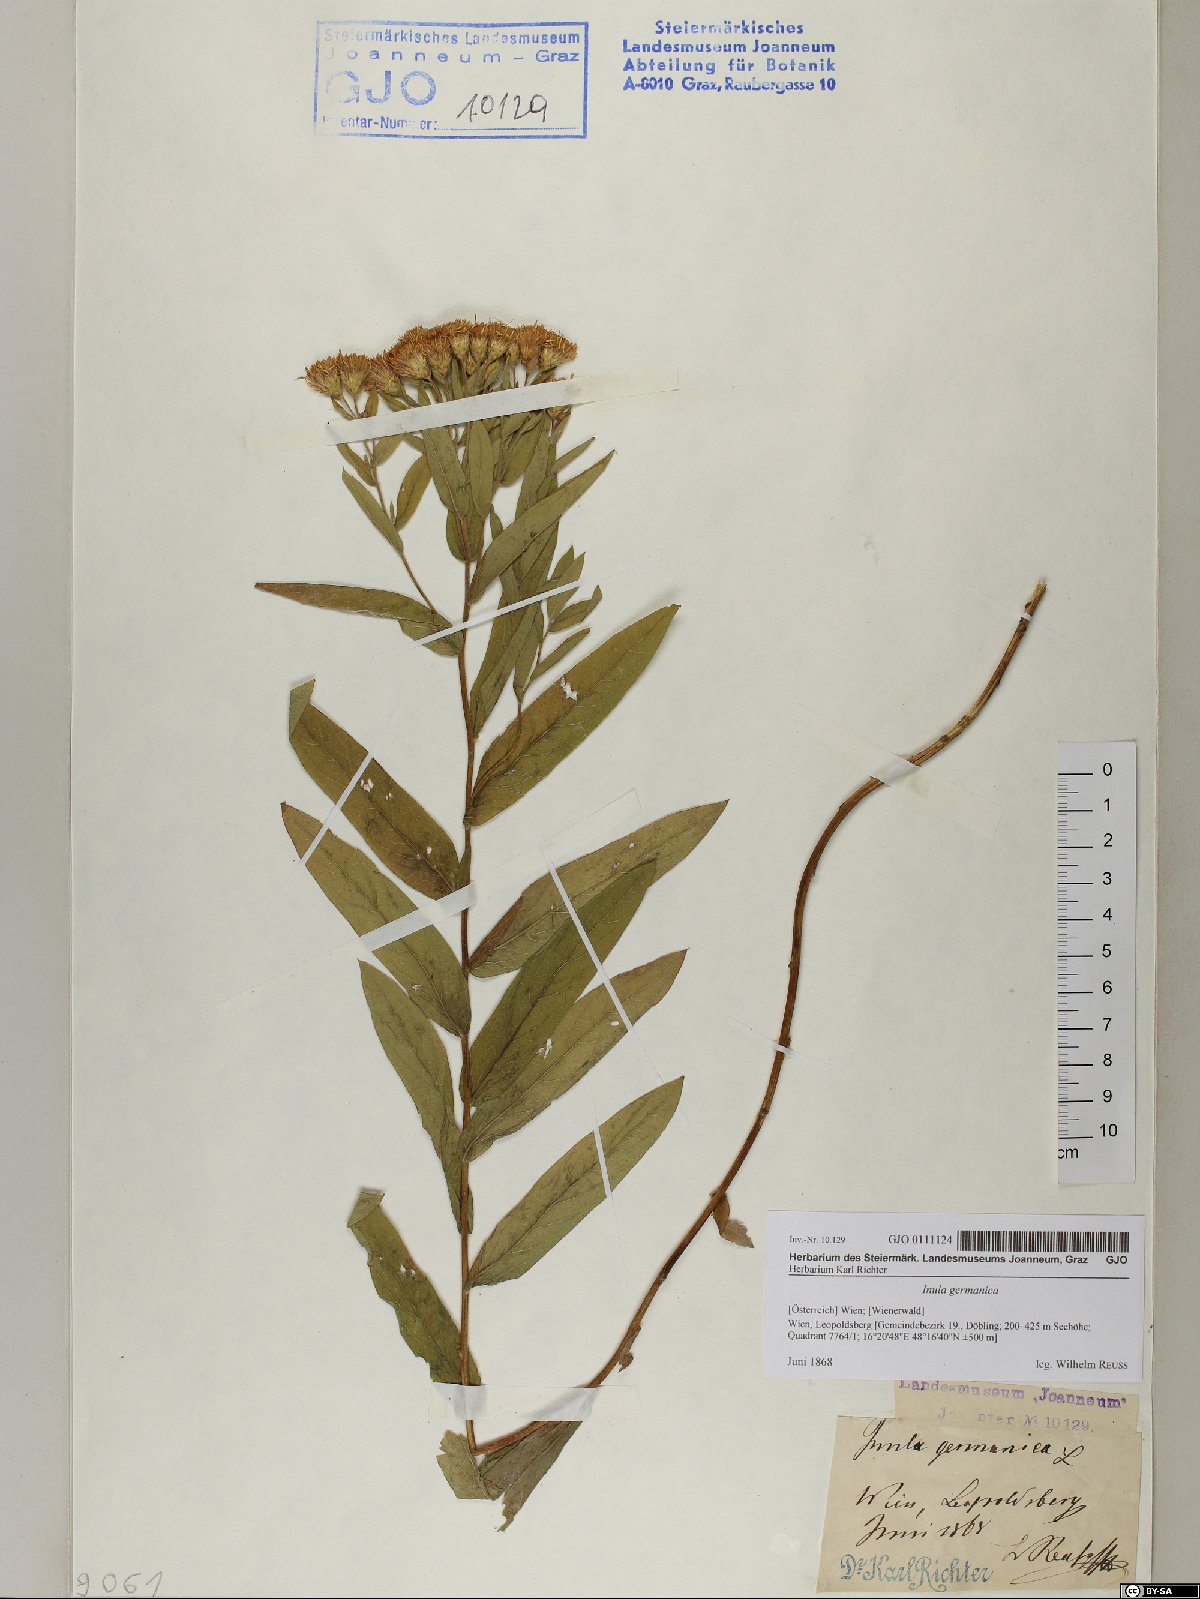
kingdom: Plantae
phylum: Tracheophyta
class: Magnoliopsida
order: Asterales
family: Asteraceae
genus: Pentanema
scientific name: Pentanema germanicum
